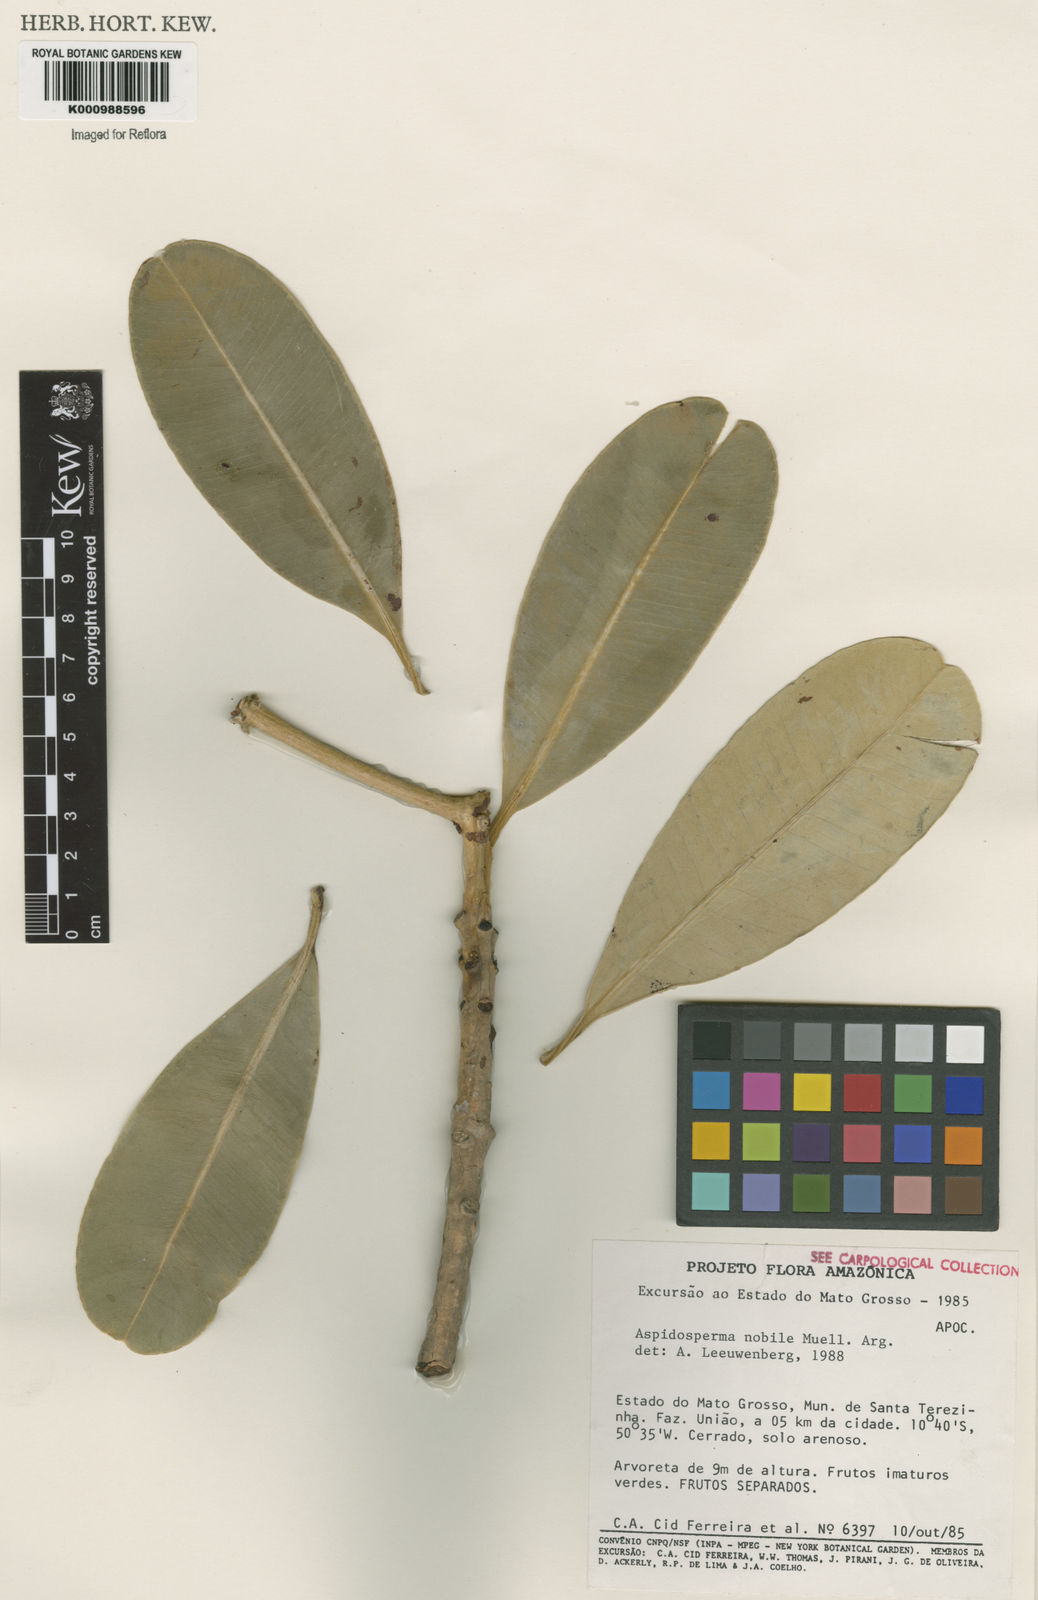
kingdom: Plantae
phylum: Tracheophyta
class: Magnoliopsida
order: Gentianales
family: Apocynaceae
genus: Aspidosperma
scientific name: Aspidosperma
